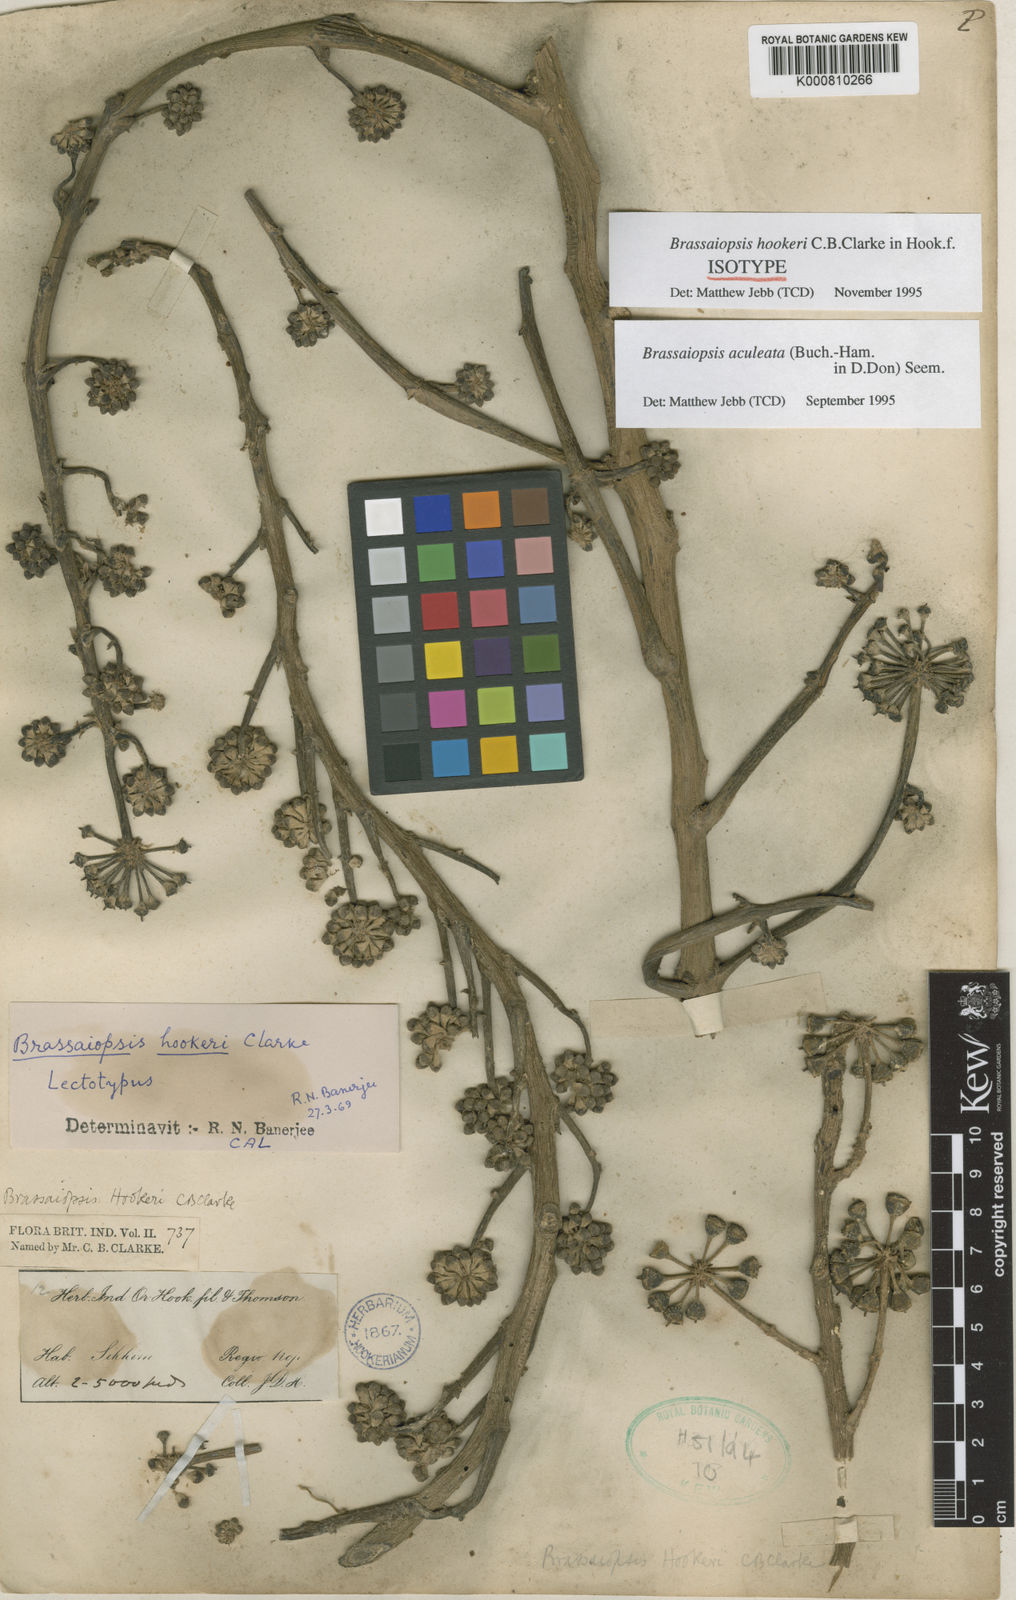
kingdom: Plantae
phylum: Tracheophyta
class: Magnoliopsida
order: Apiales
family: Araliaceae
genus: Brassaiopsis
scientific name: Brassaiopsis aculeata
